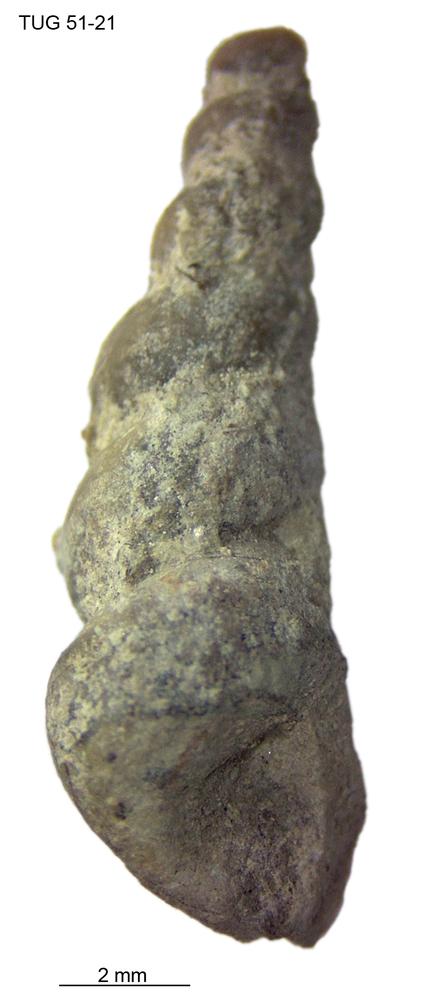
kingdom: Animalia
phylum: Mollusca
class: Gastropoda
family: Loxonematidae
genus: Loxonema
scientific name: Loxonema
